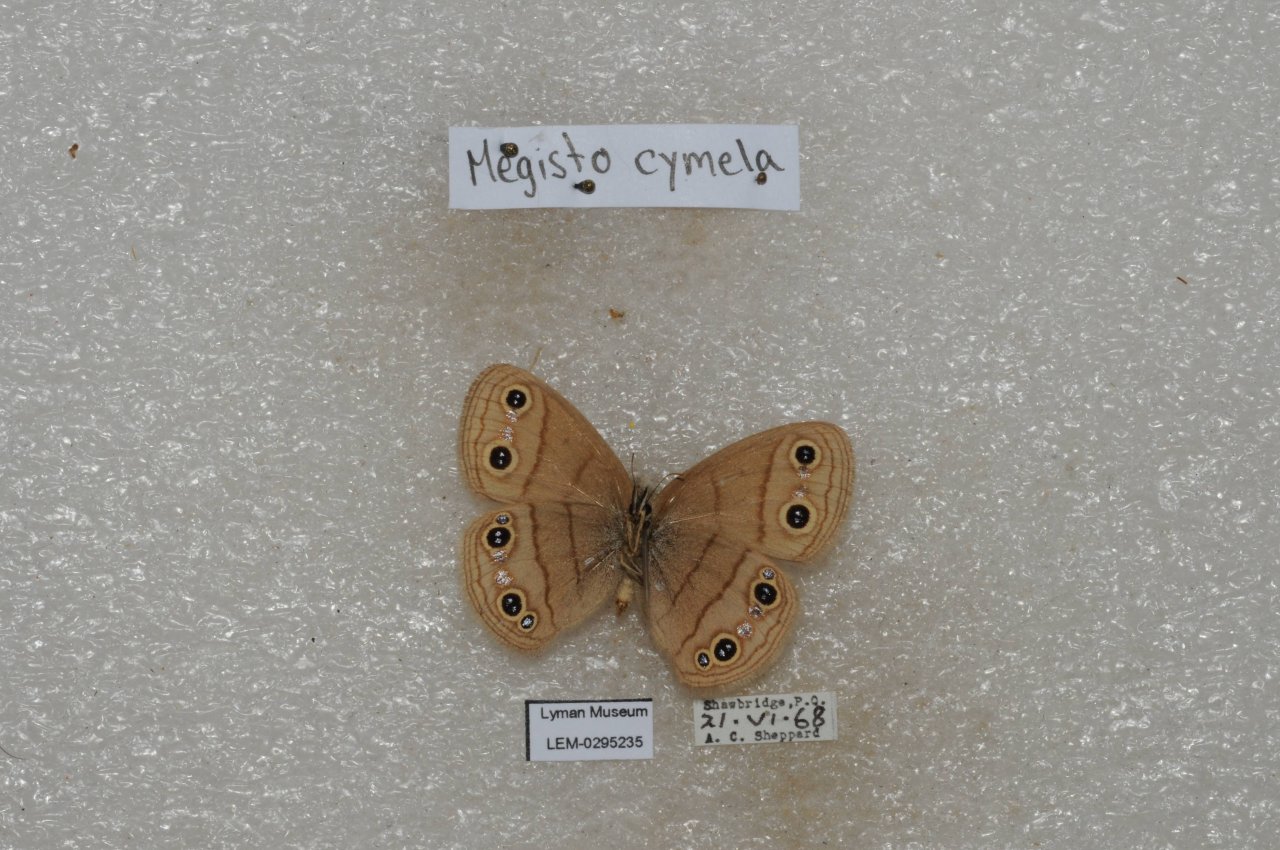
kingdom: Animalia
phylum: Arthropoda
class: Insecta
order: Lepidoptera
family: Nymphalidae
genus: Euptychia
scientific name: Euptychia cymela
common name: Little Wood Satyr
